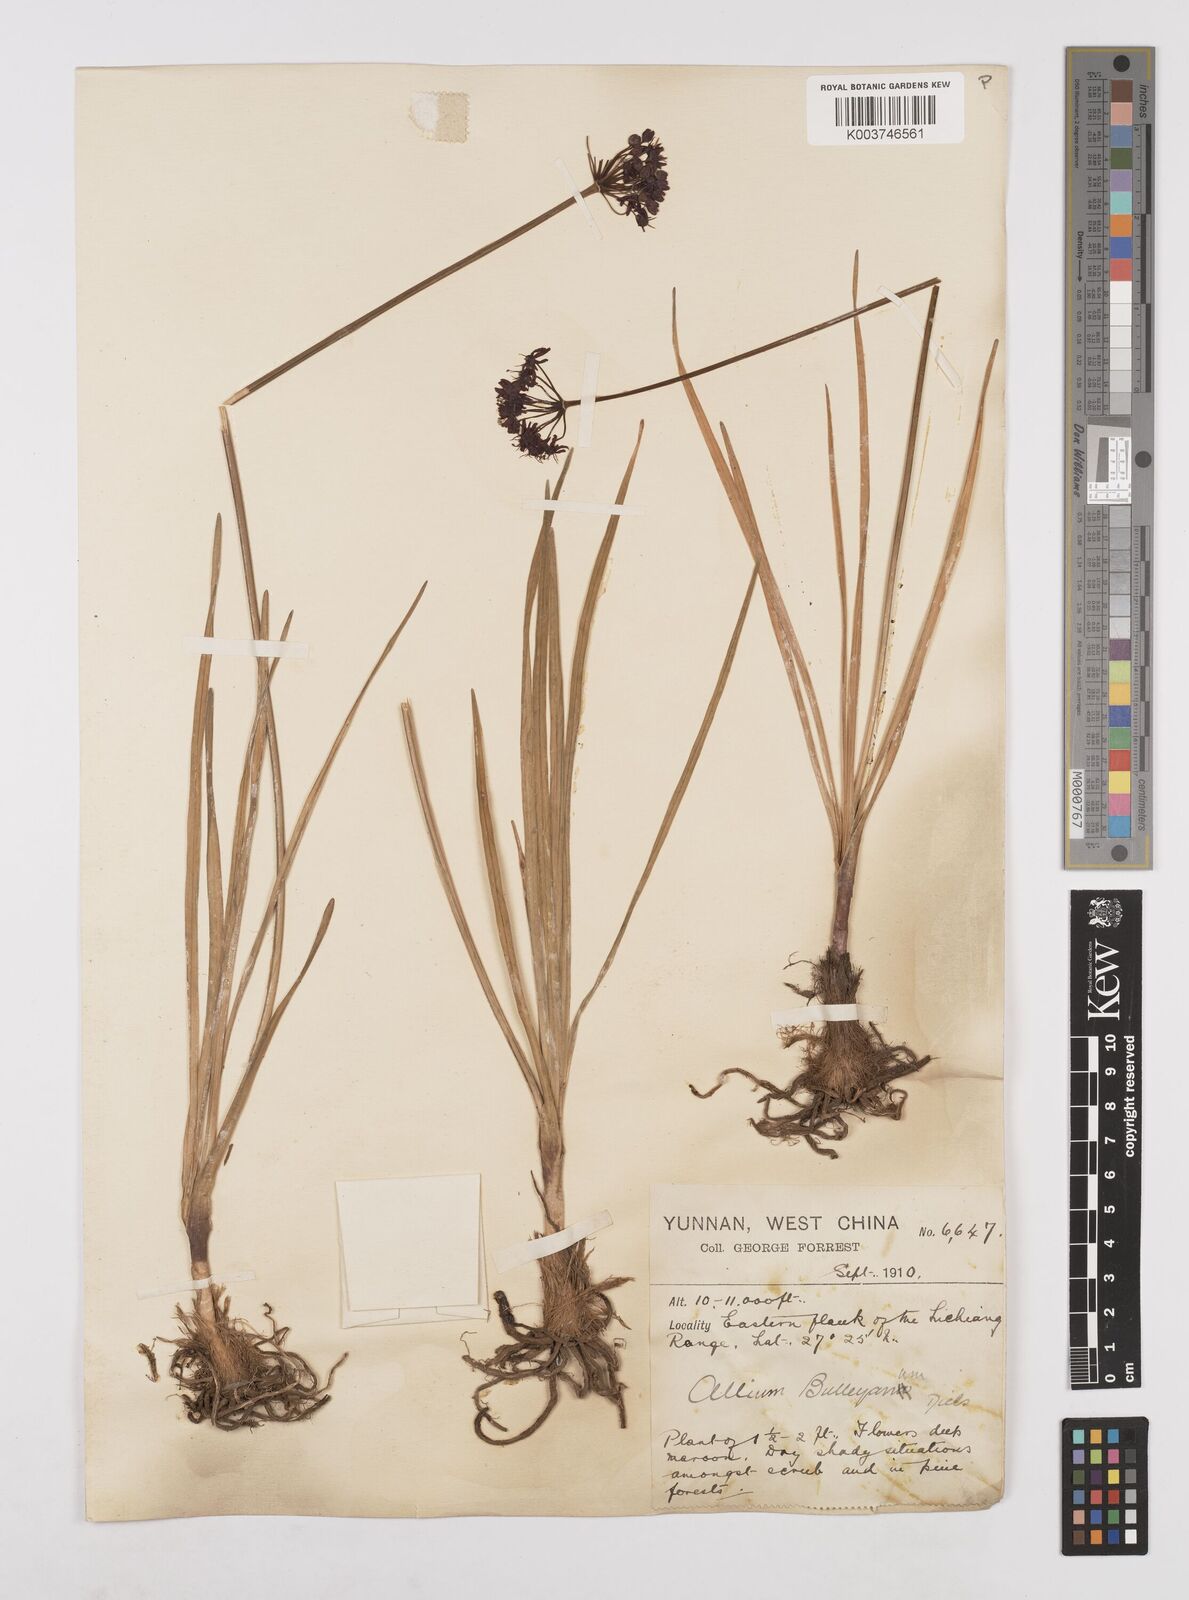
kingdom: Plantae
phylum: Tracheophyta
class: Liliopsida
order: Asparagales
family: Amaryllidaceae
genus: Allium
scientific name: Allium wallichii
